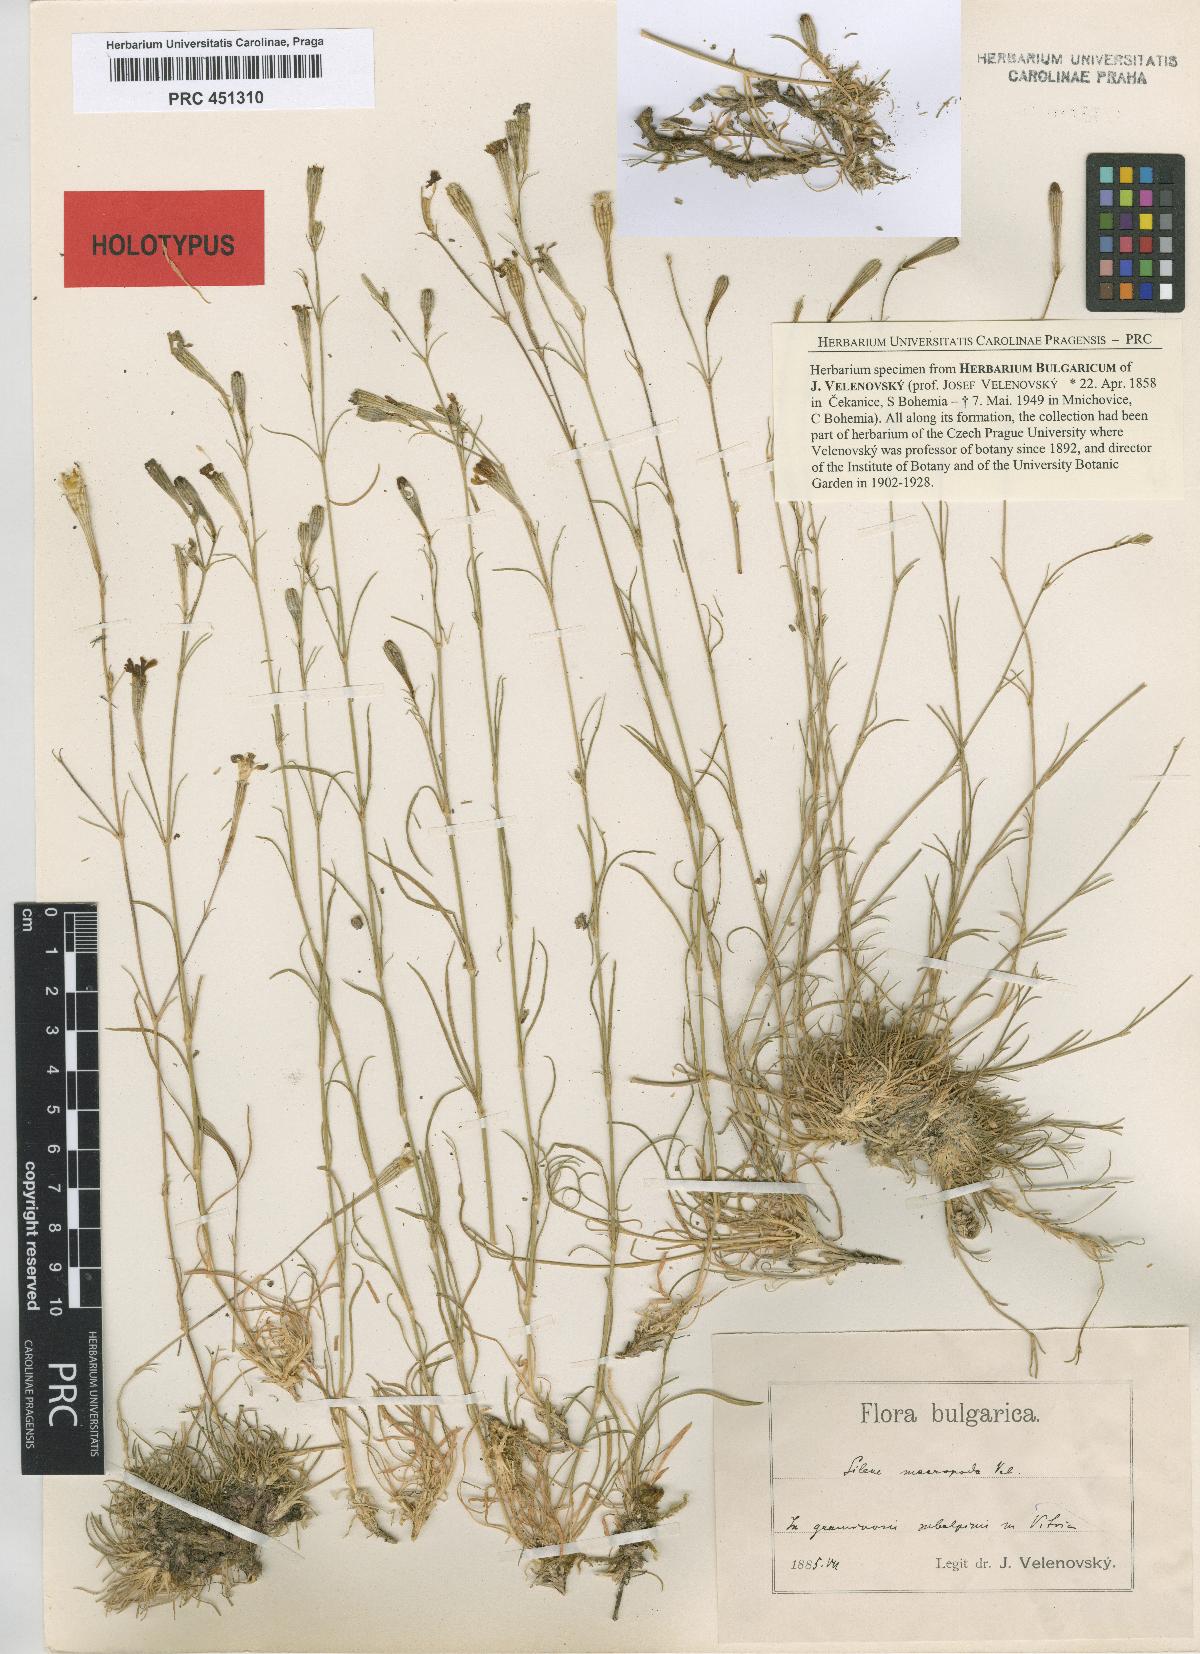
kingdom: Plantae
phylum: Tracheophyta
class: Magnoliopsida
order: Caryophyllales
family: Caryophyllaceae
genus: Silene
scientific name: Silene waldsteinii
